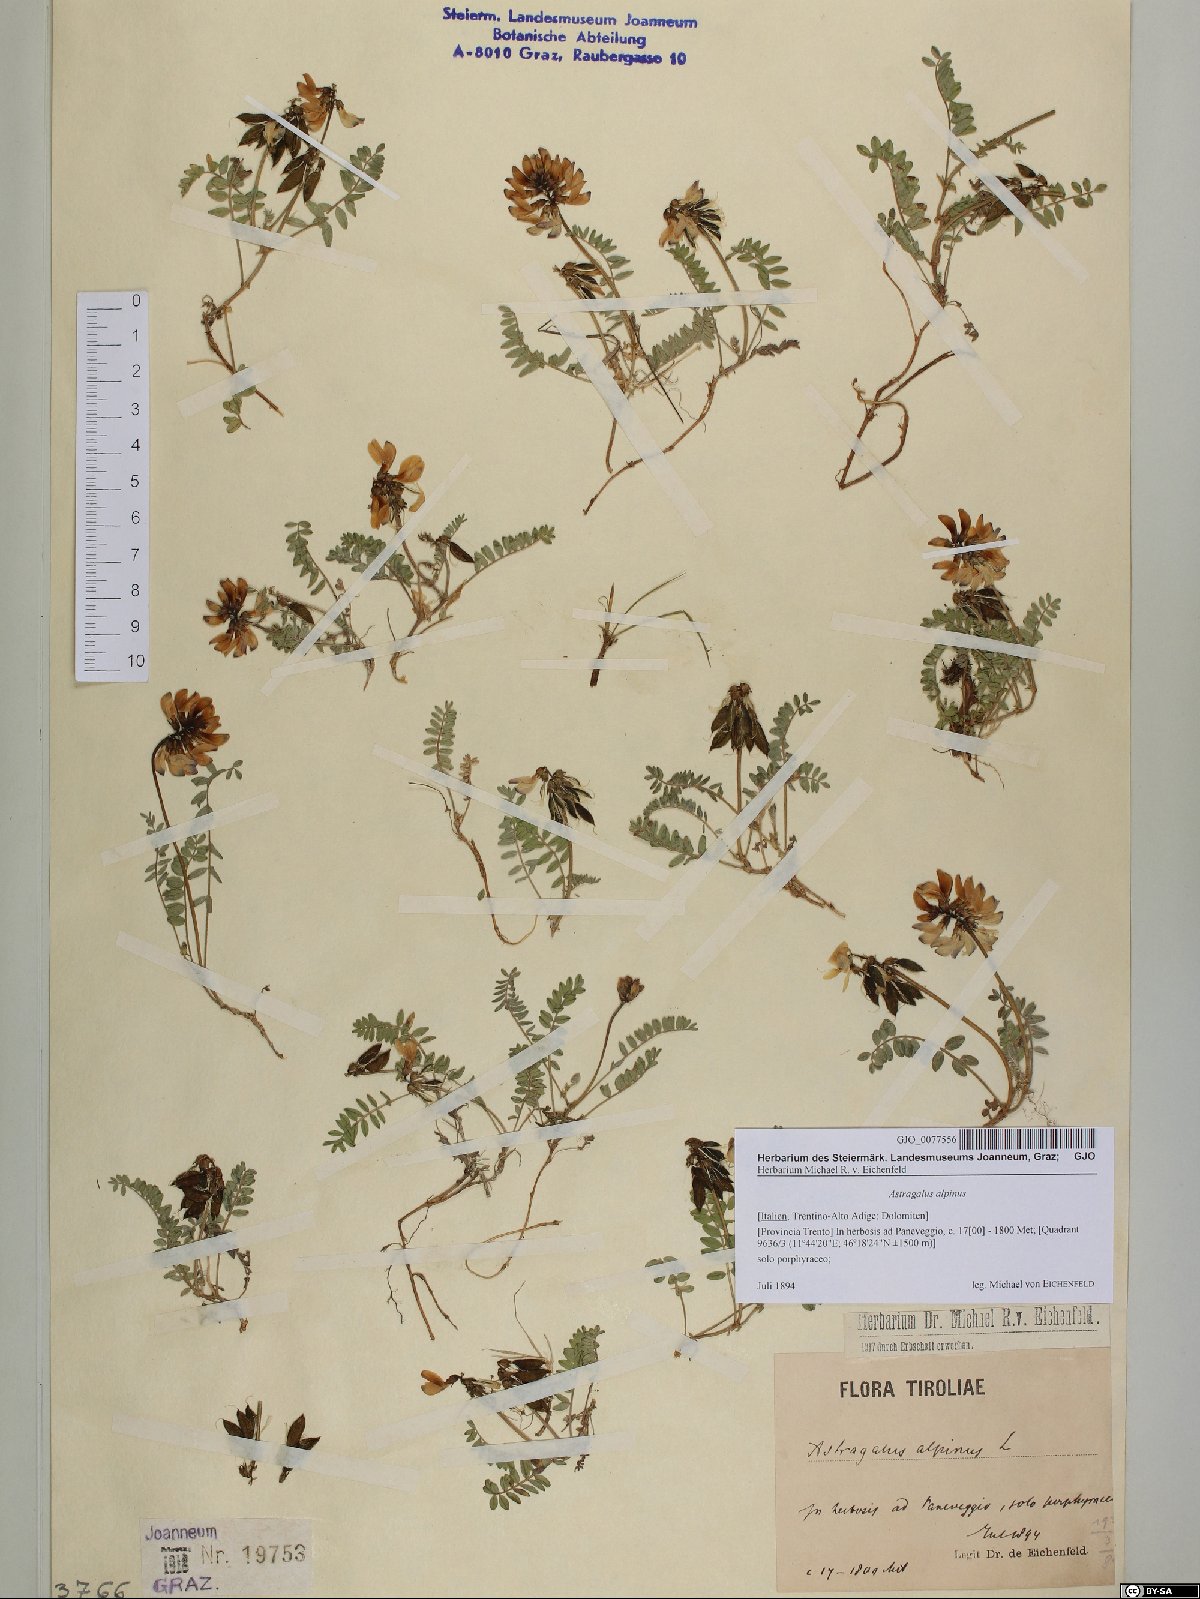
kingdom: Plantae
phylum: Tracheophyta
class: Magnoliopsida
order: Fabales
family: Fabaceae
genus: Astragalus
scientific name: Astragalus alpinus
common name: Alpine milk-vetch
